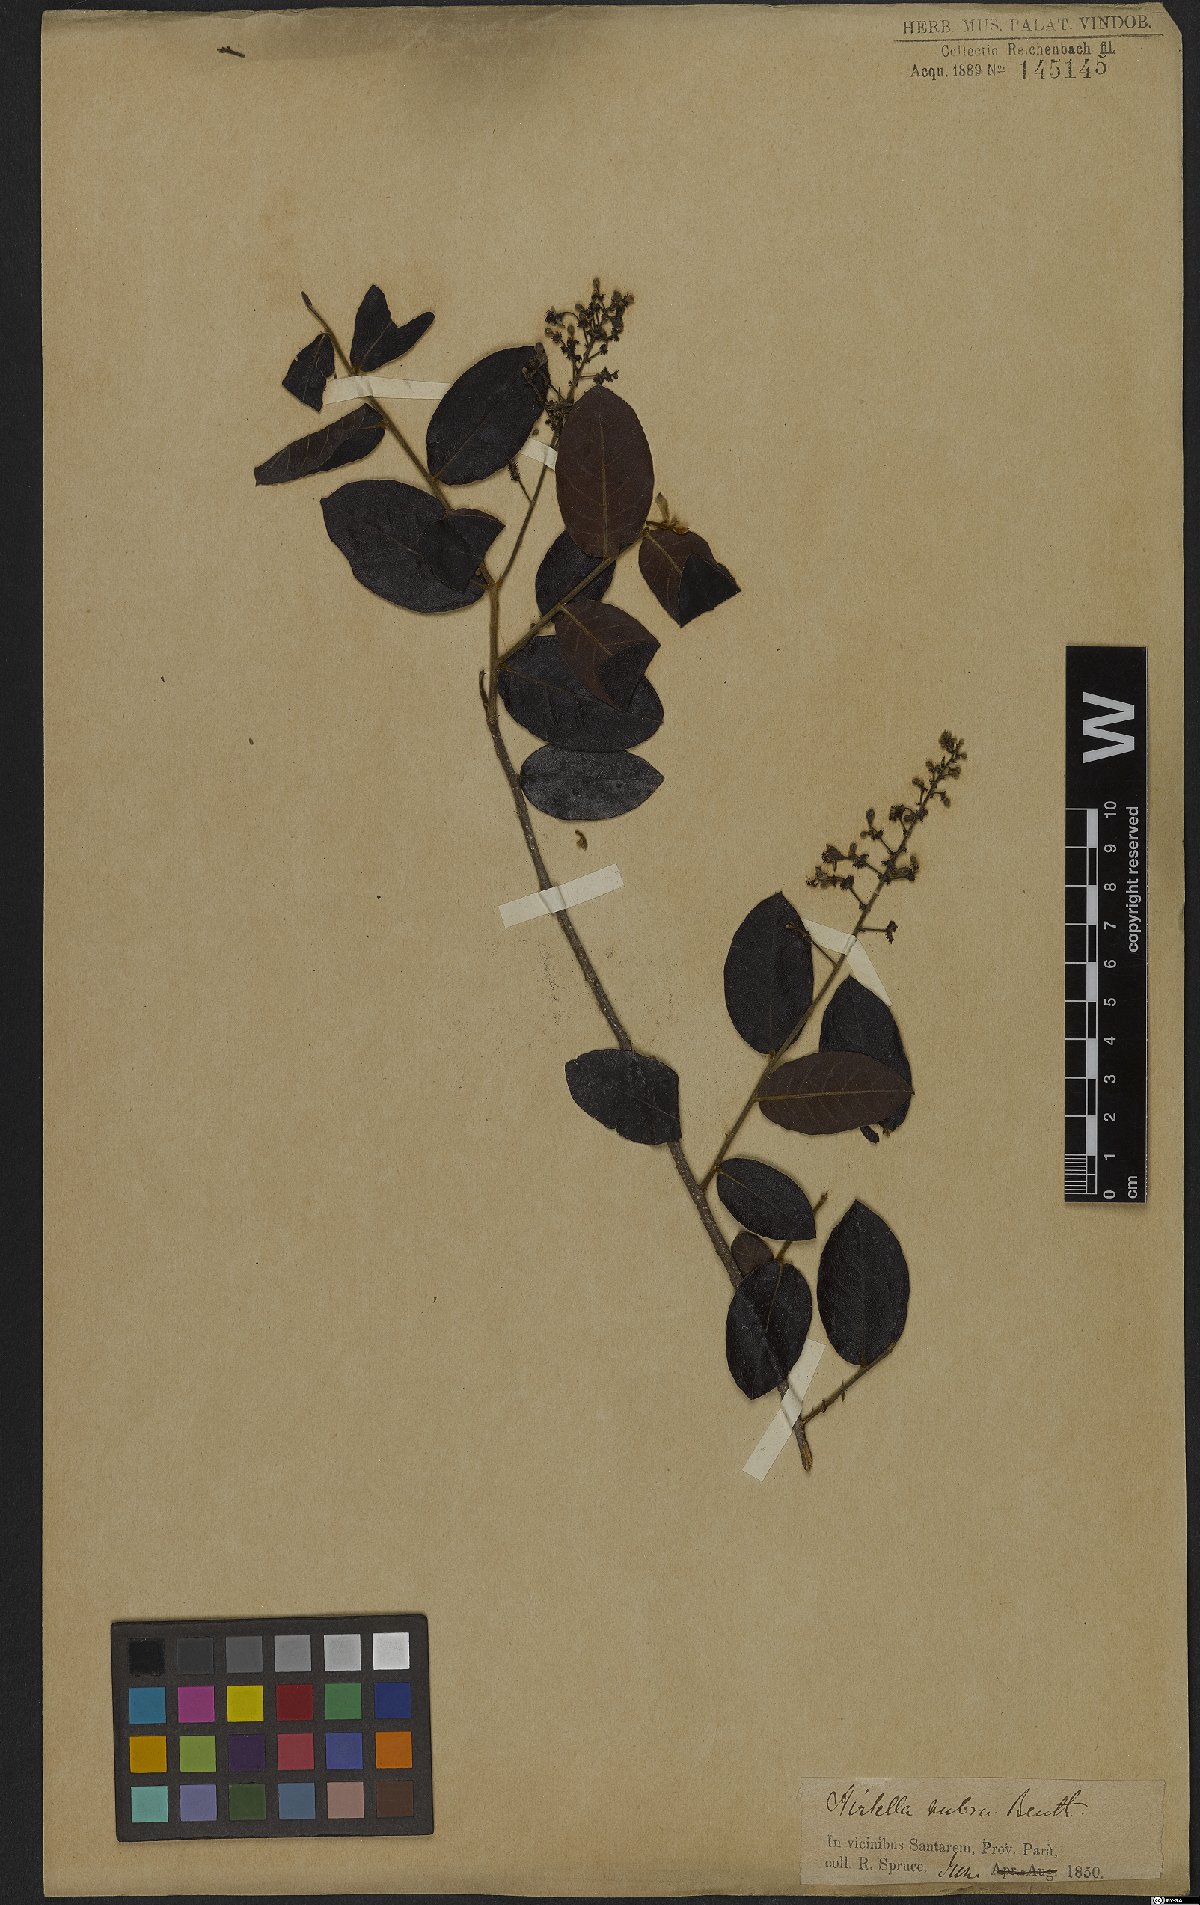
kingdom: Plantae
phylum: Tracheophyta
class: Magnoliopsida
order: Malpighiales
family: Chrysobalanaceae
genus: Hirtella
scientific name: Hirtella ciliata
